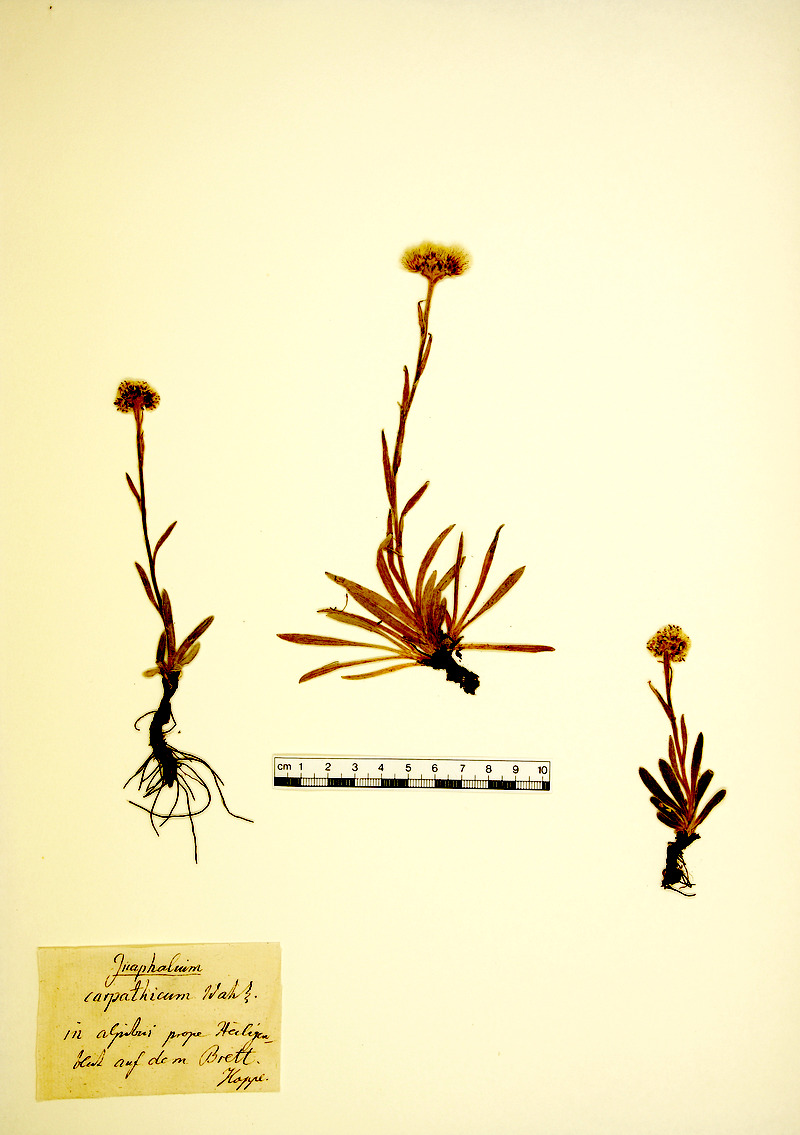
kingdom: Plantae
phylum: Tracheophyta
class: Magnoliopsida
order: Asterales
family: Asteraceae
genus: Antennaria
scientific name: Antennaria carpatica
